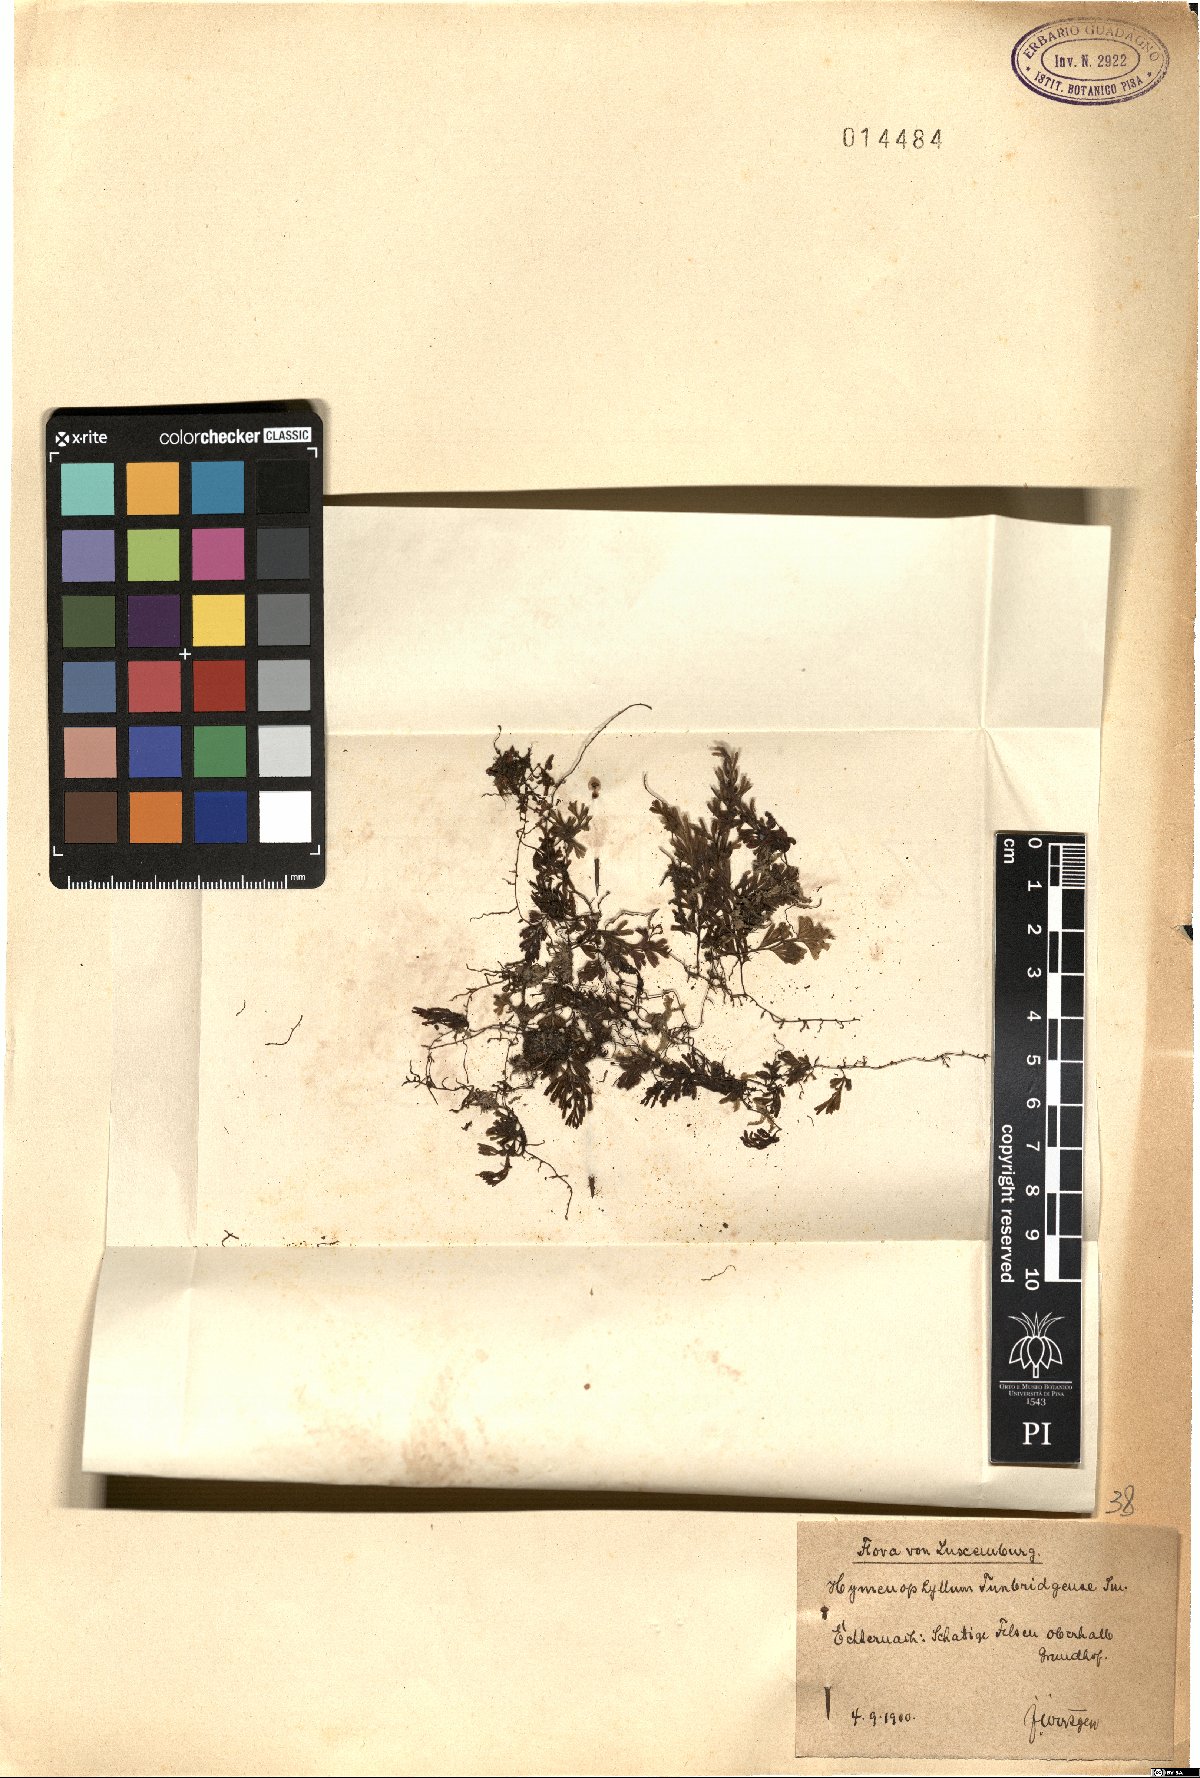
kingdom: Plantae
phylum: Tracheophyta
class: Polypodiopsida
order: Hymenophyllales
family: Hymenophyllaceae
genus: Hymenophyllum
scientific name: Hymenophyllum tunbrigense
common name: Tunbridge filmy fern
